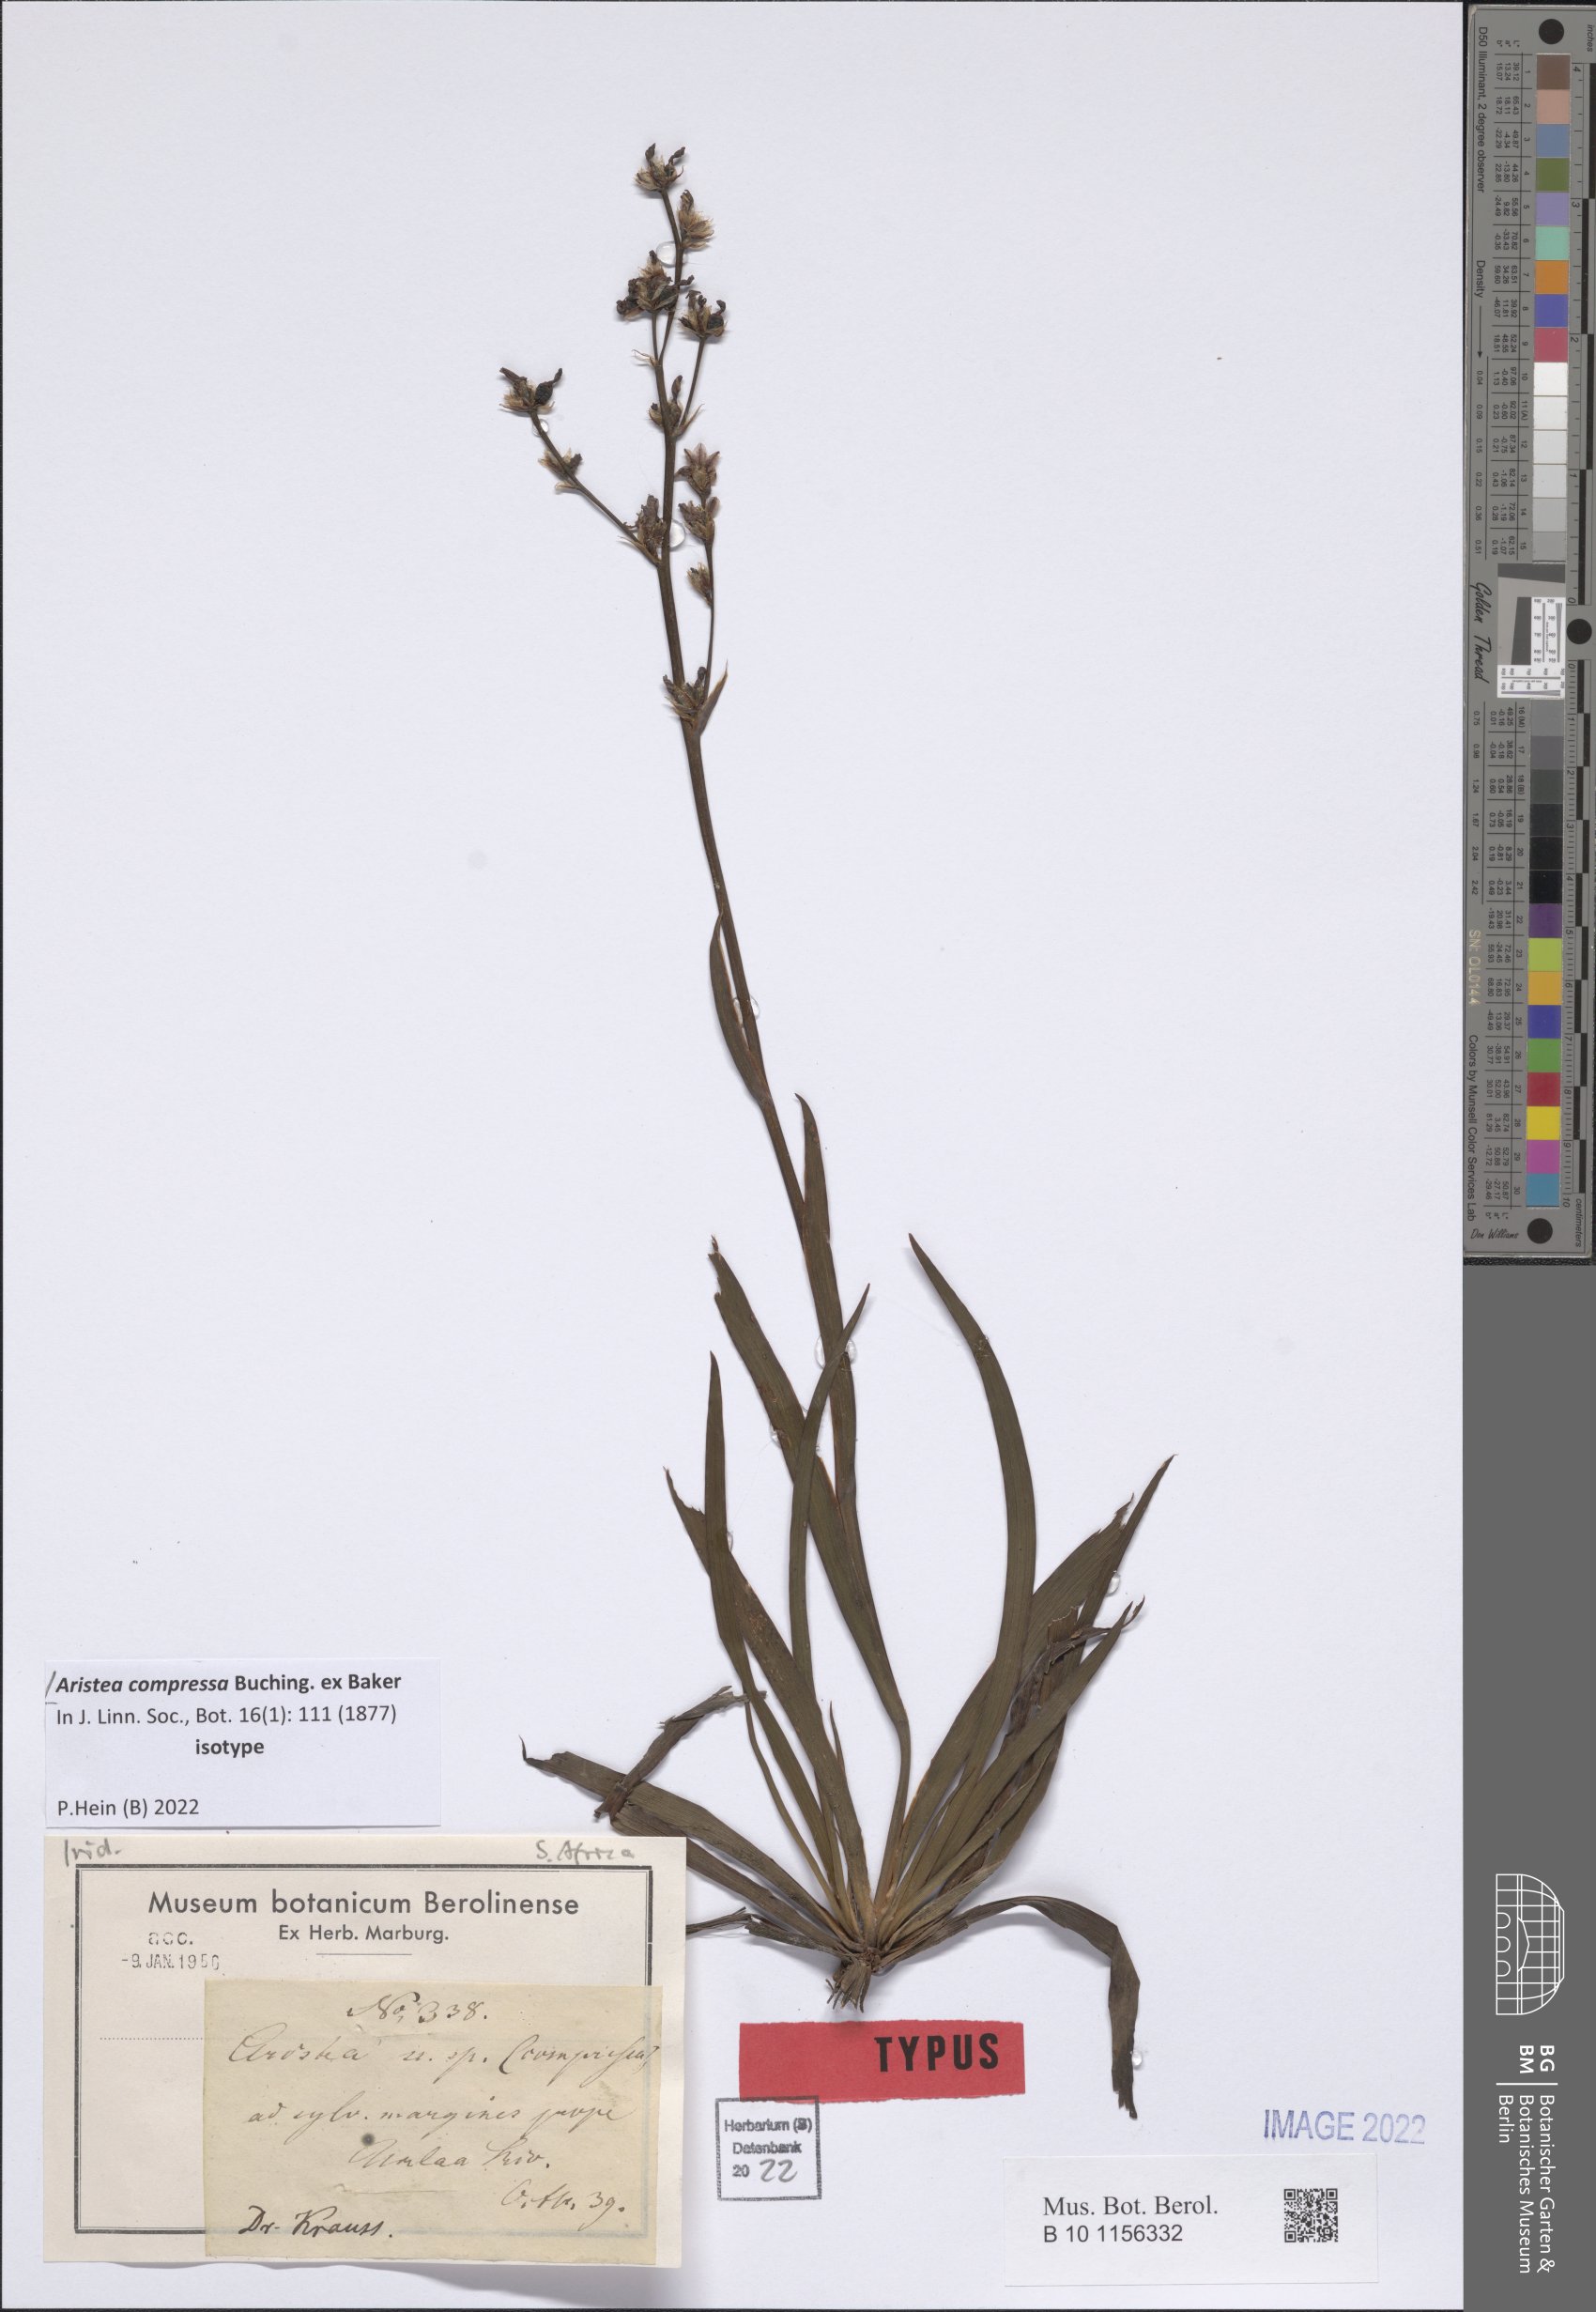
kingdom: Plantae
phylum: Tracheophyta
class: Liliopsida
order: Asparagales
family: Iridaceae
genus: Aristea
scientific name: Aristea compressa
